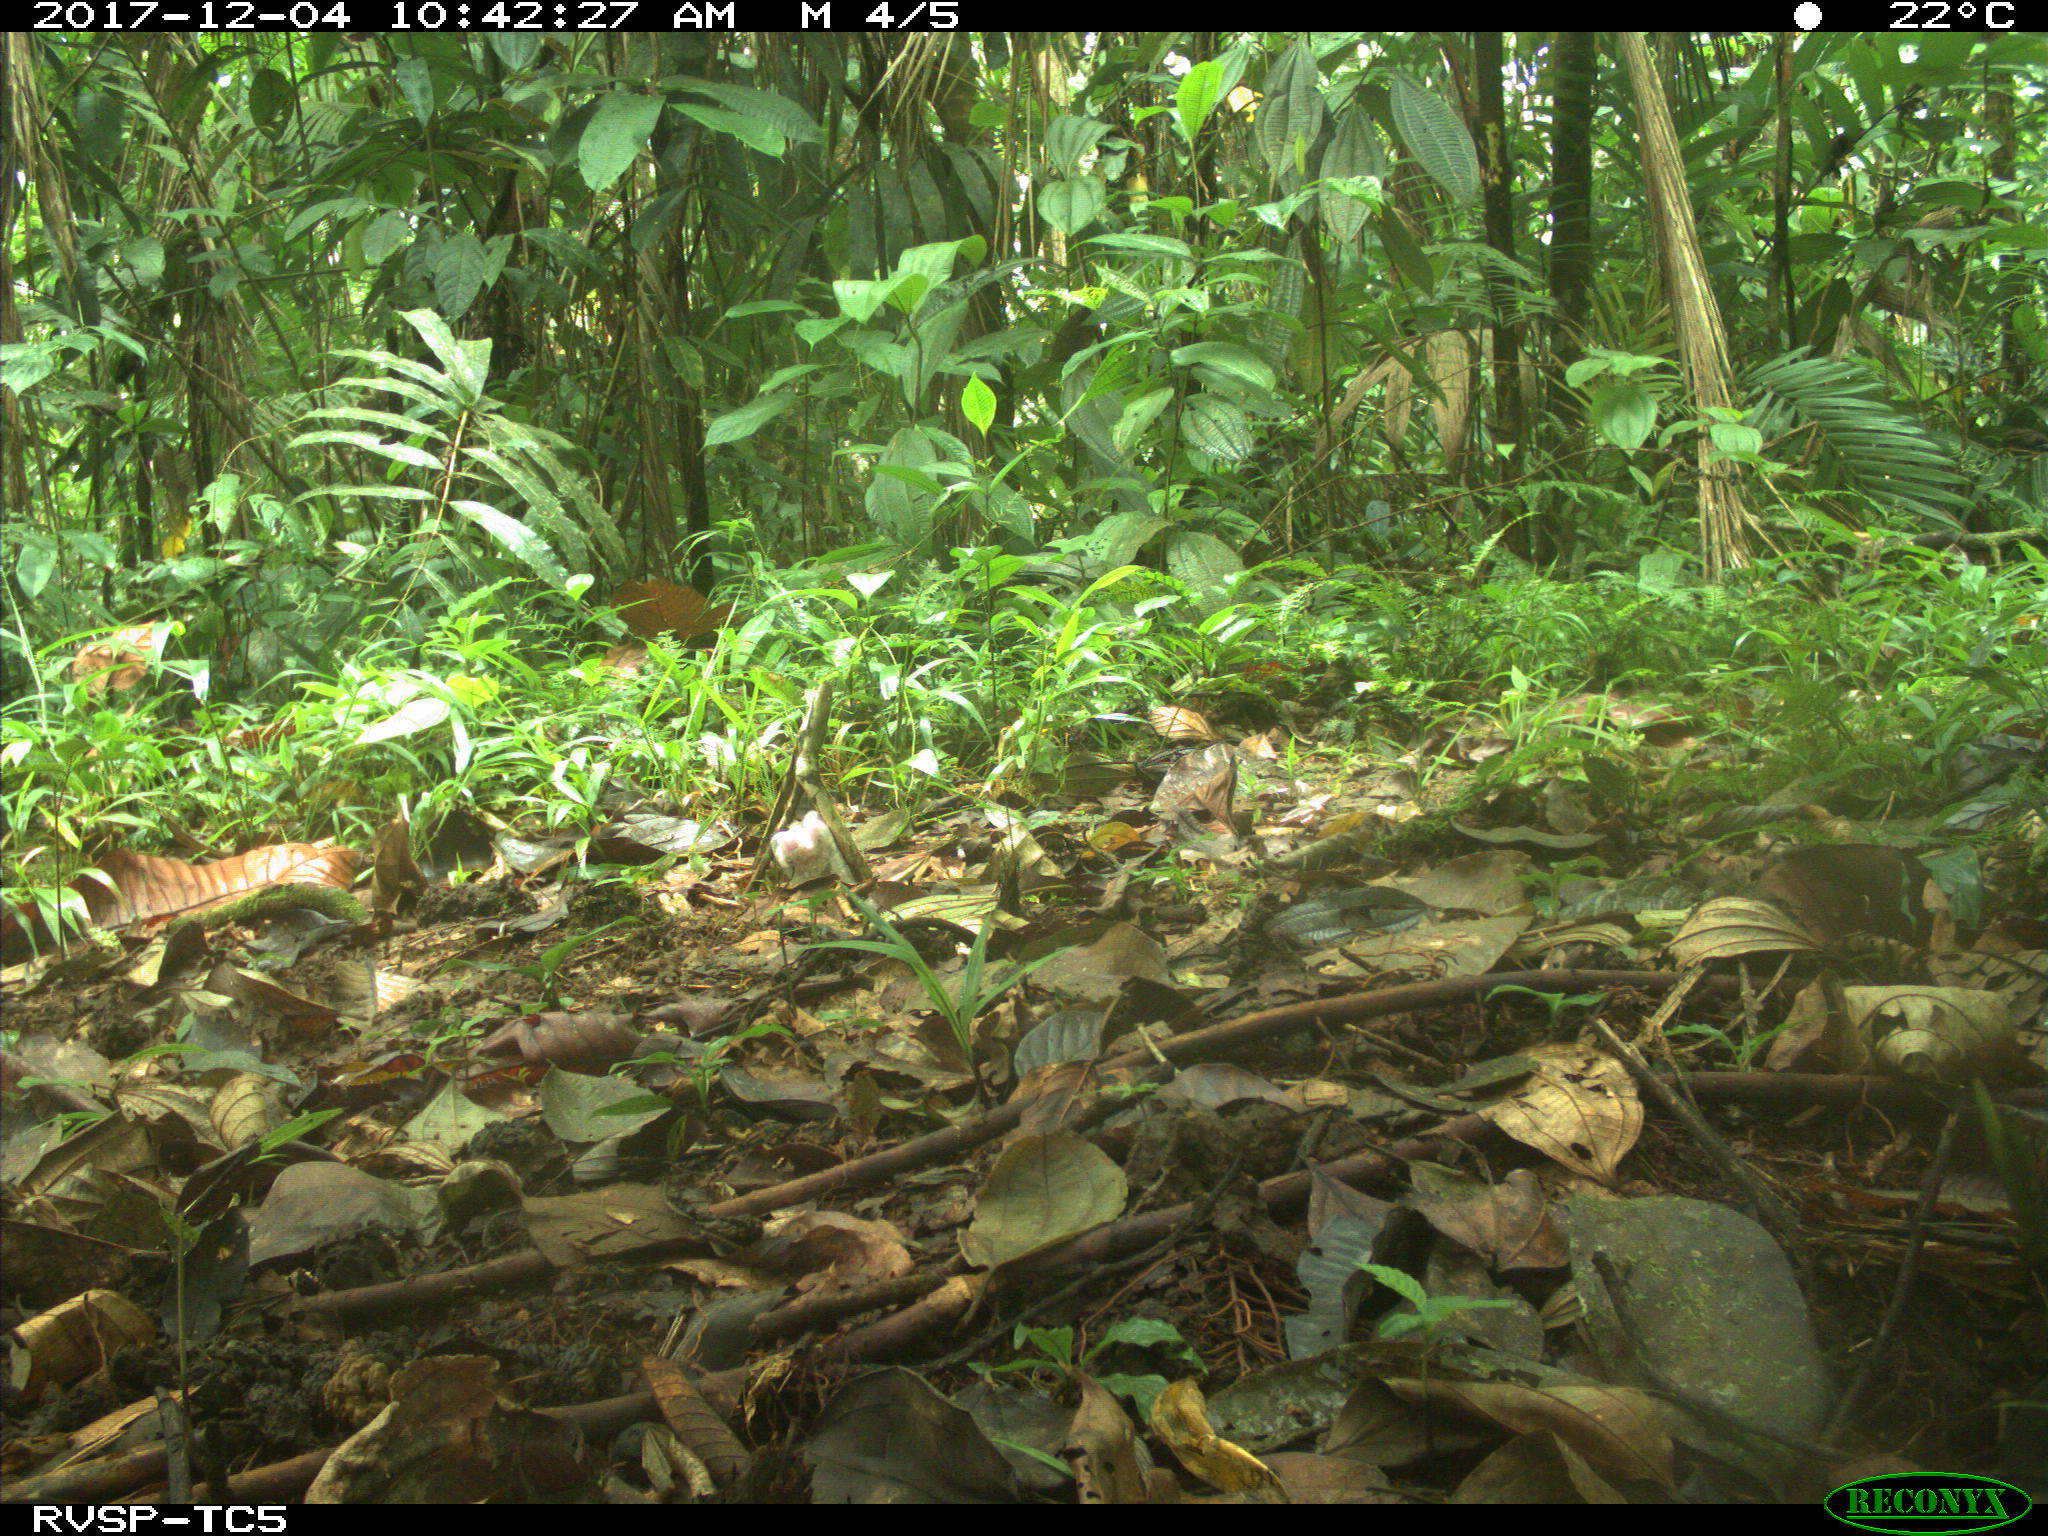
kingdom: Animalia
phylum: Chordata
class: Mammalia
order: Rodentia
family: Dasyproctidae
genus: Dasyprocta
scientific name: Dasyprocta punctata
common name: Central american agouti
